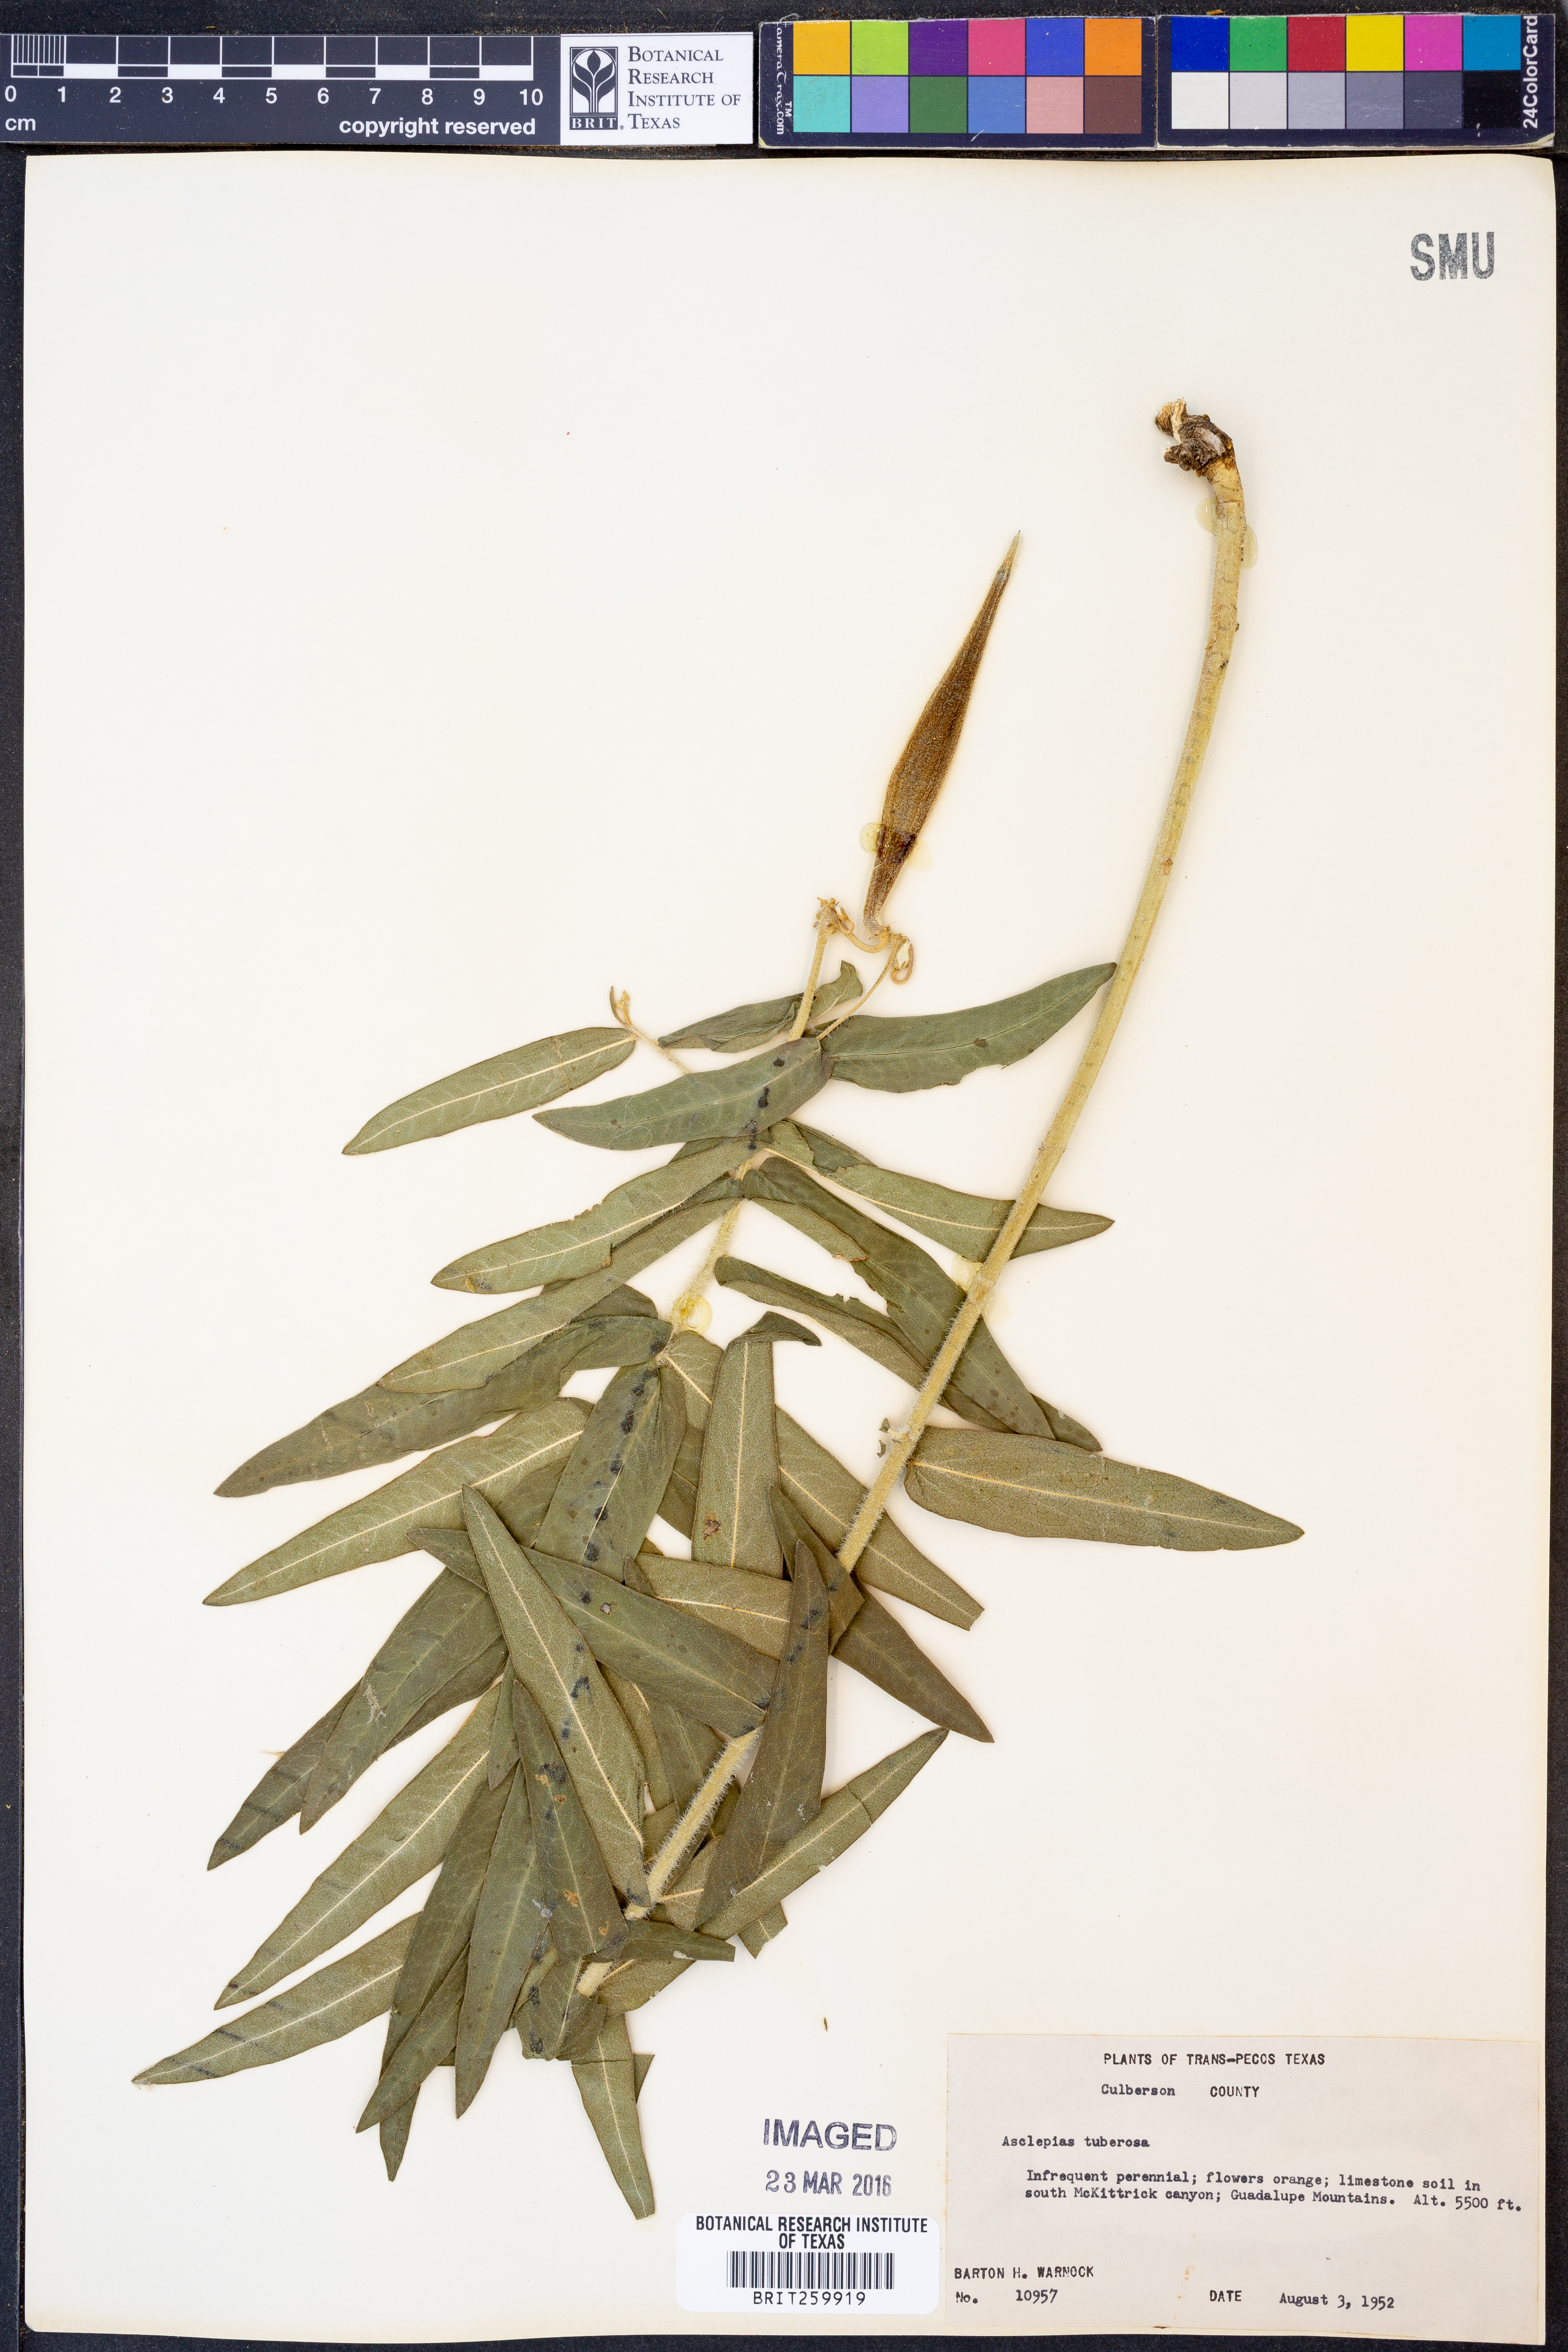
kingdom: Plantae
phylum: Tracheophyta
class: Magnoliopsida
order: Gentianales
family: Apocynaceae
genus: Asclepias
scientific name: Asclepias tuberosa
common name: Butterfly milkweed
